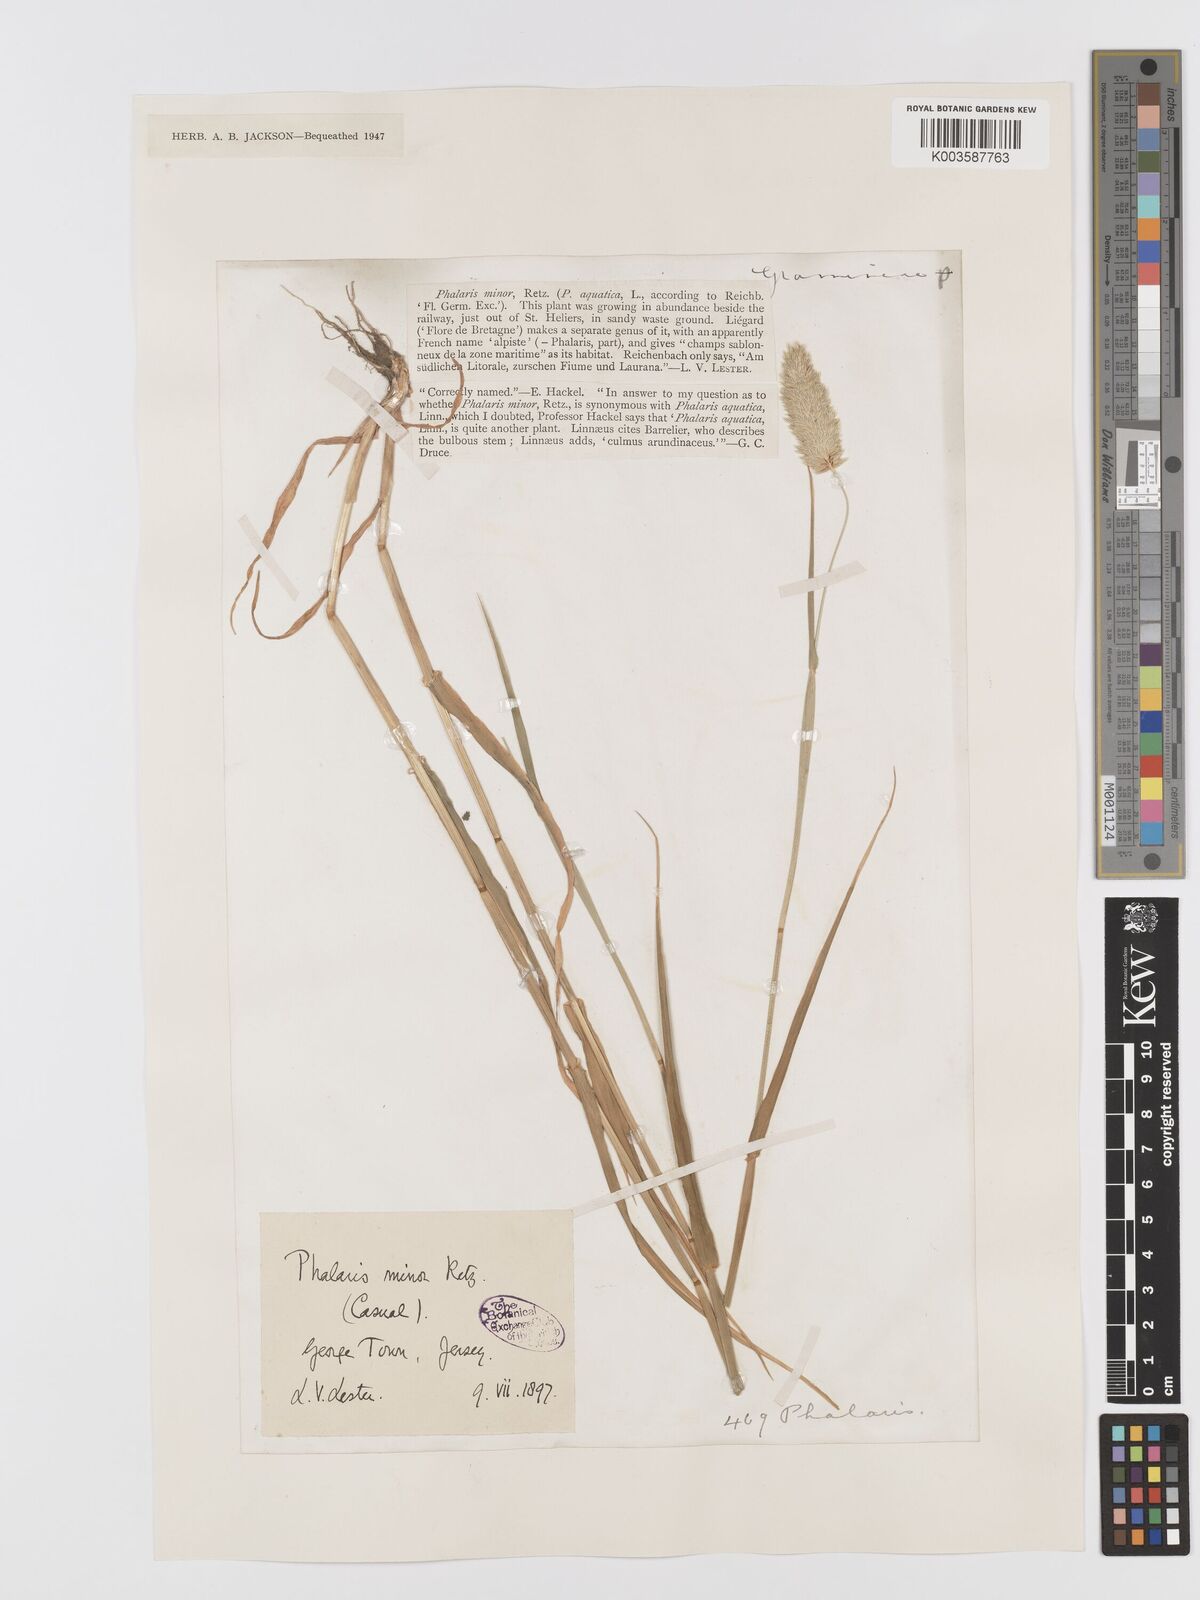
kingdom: Plantae
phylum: Tracheophyta
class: Liliopsida
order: Poales
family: Poaceae
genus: Phalaris
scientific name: Phalaris minor
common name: Littleseed canarygrass
